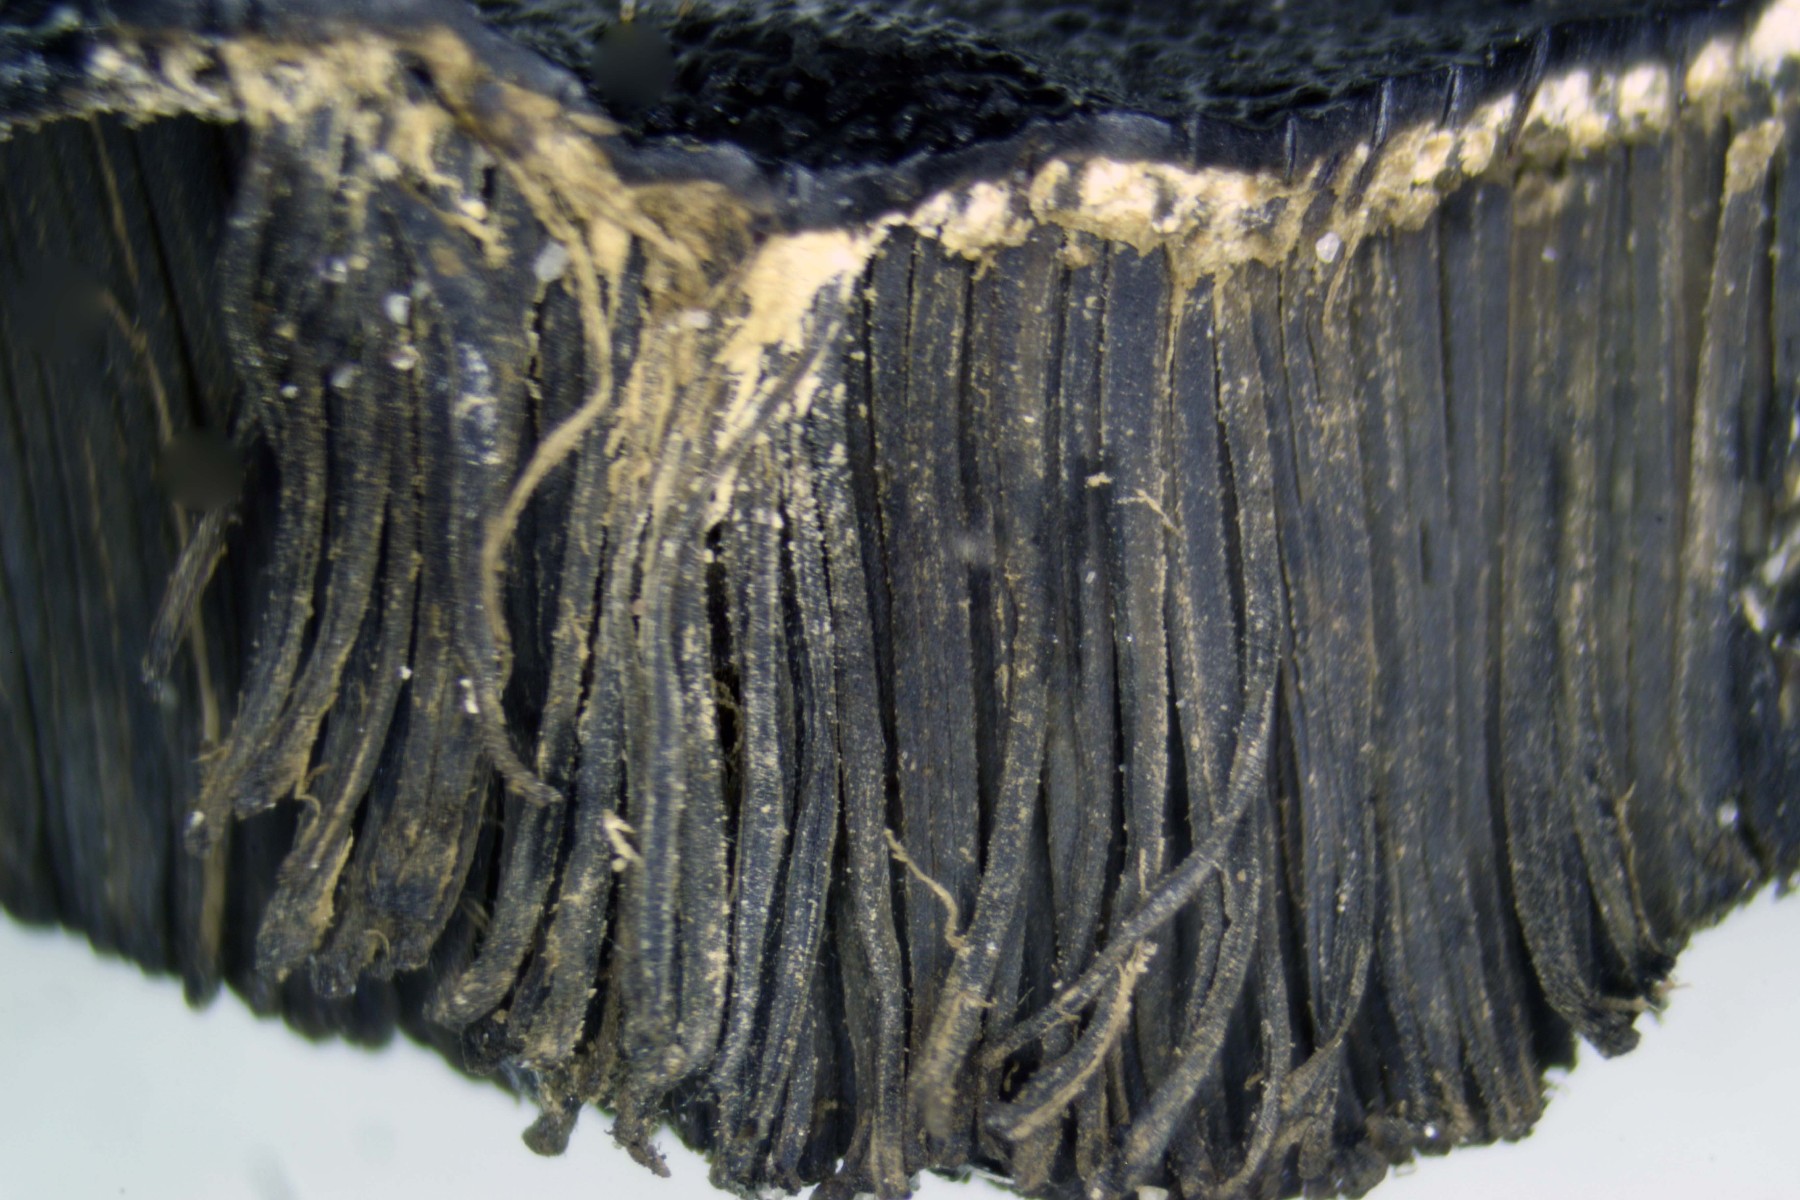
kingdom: Fungi
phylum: Ascomycota
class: Sordariomycetes
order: Boliniales
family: Boliniaceae
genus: Camarops
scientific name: Camarops polysperma
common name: elle-kulsnegl
